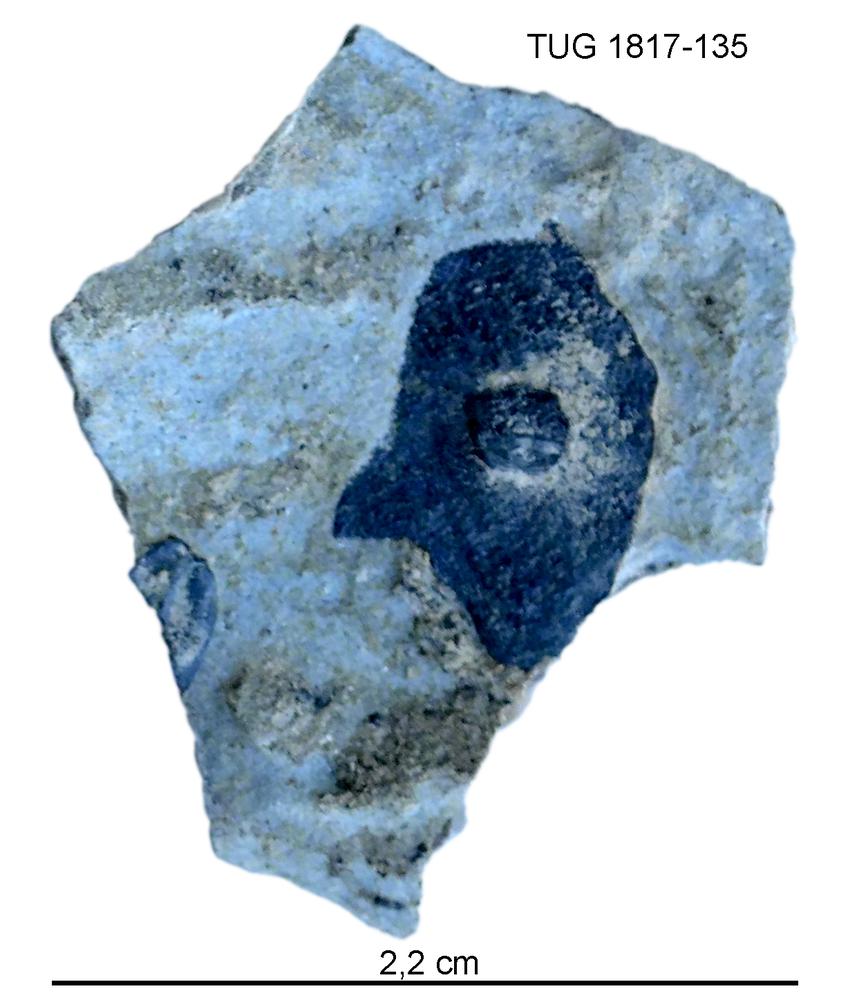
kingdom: Animalia
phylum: Chordata
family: Coccosteidae
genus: Millerosteus
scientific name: Millerosteus minor
